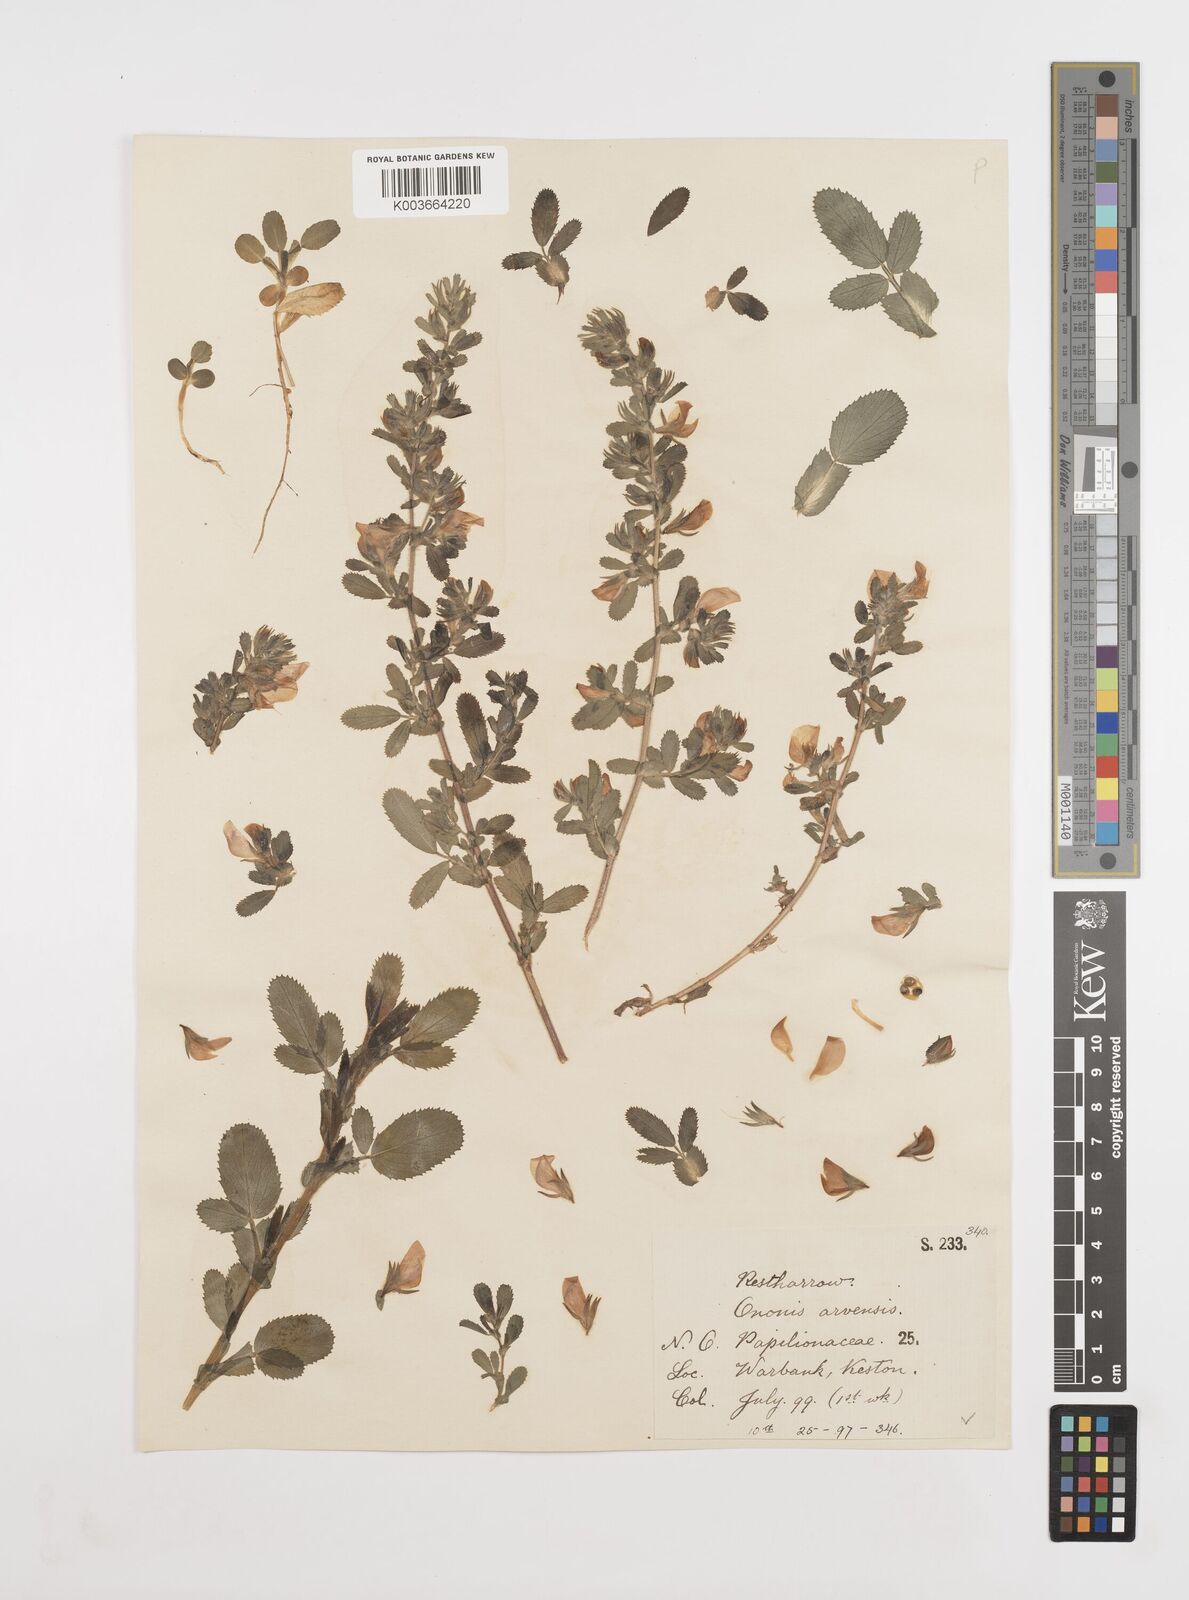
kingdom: Plantae
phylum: Tracheophyta
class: Magnoliopsida
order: Fabales
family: Fabaceae
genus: Ononis
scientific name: Ononis spinosa
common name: Spiny restharrow
